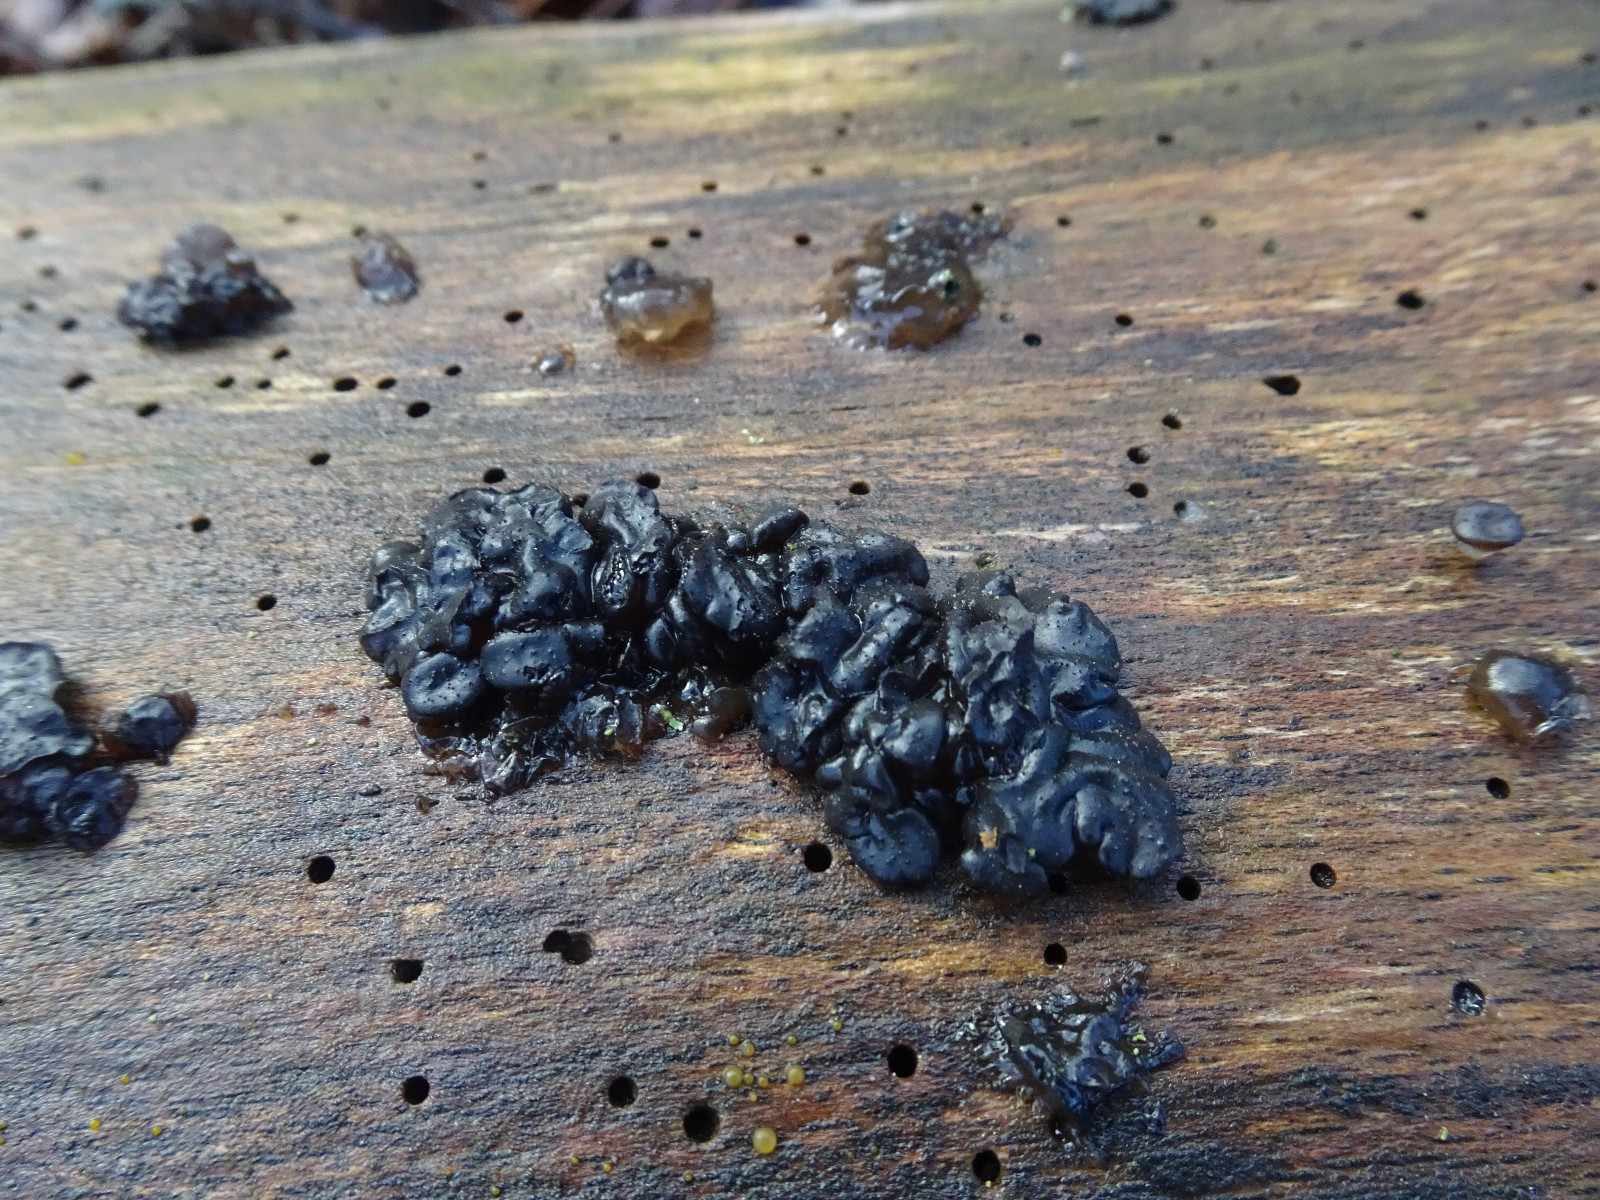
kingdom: Fungi
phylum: Basidiomycota
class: Agaricomycetes
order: Auriculariales
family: Auriculariaceae
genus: Exidia
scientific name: Exidia nigricans
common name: almindelig bævretop
